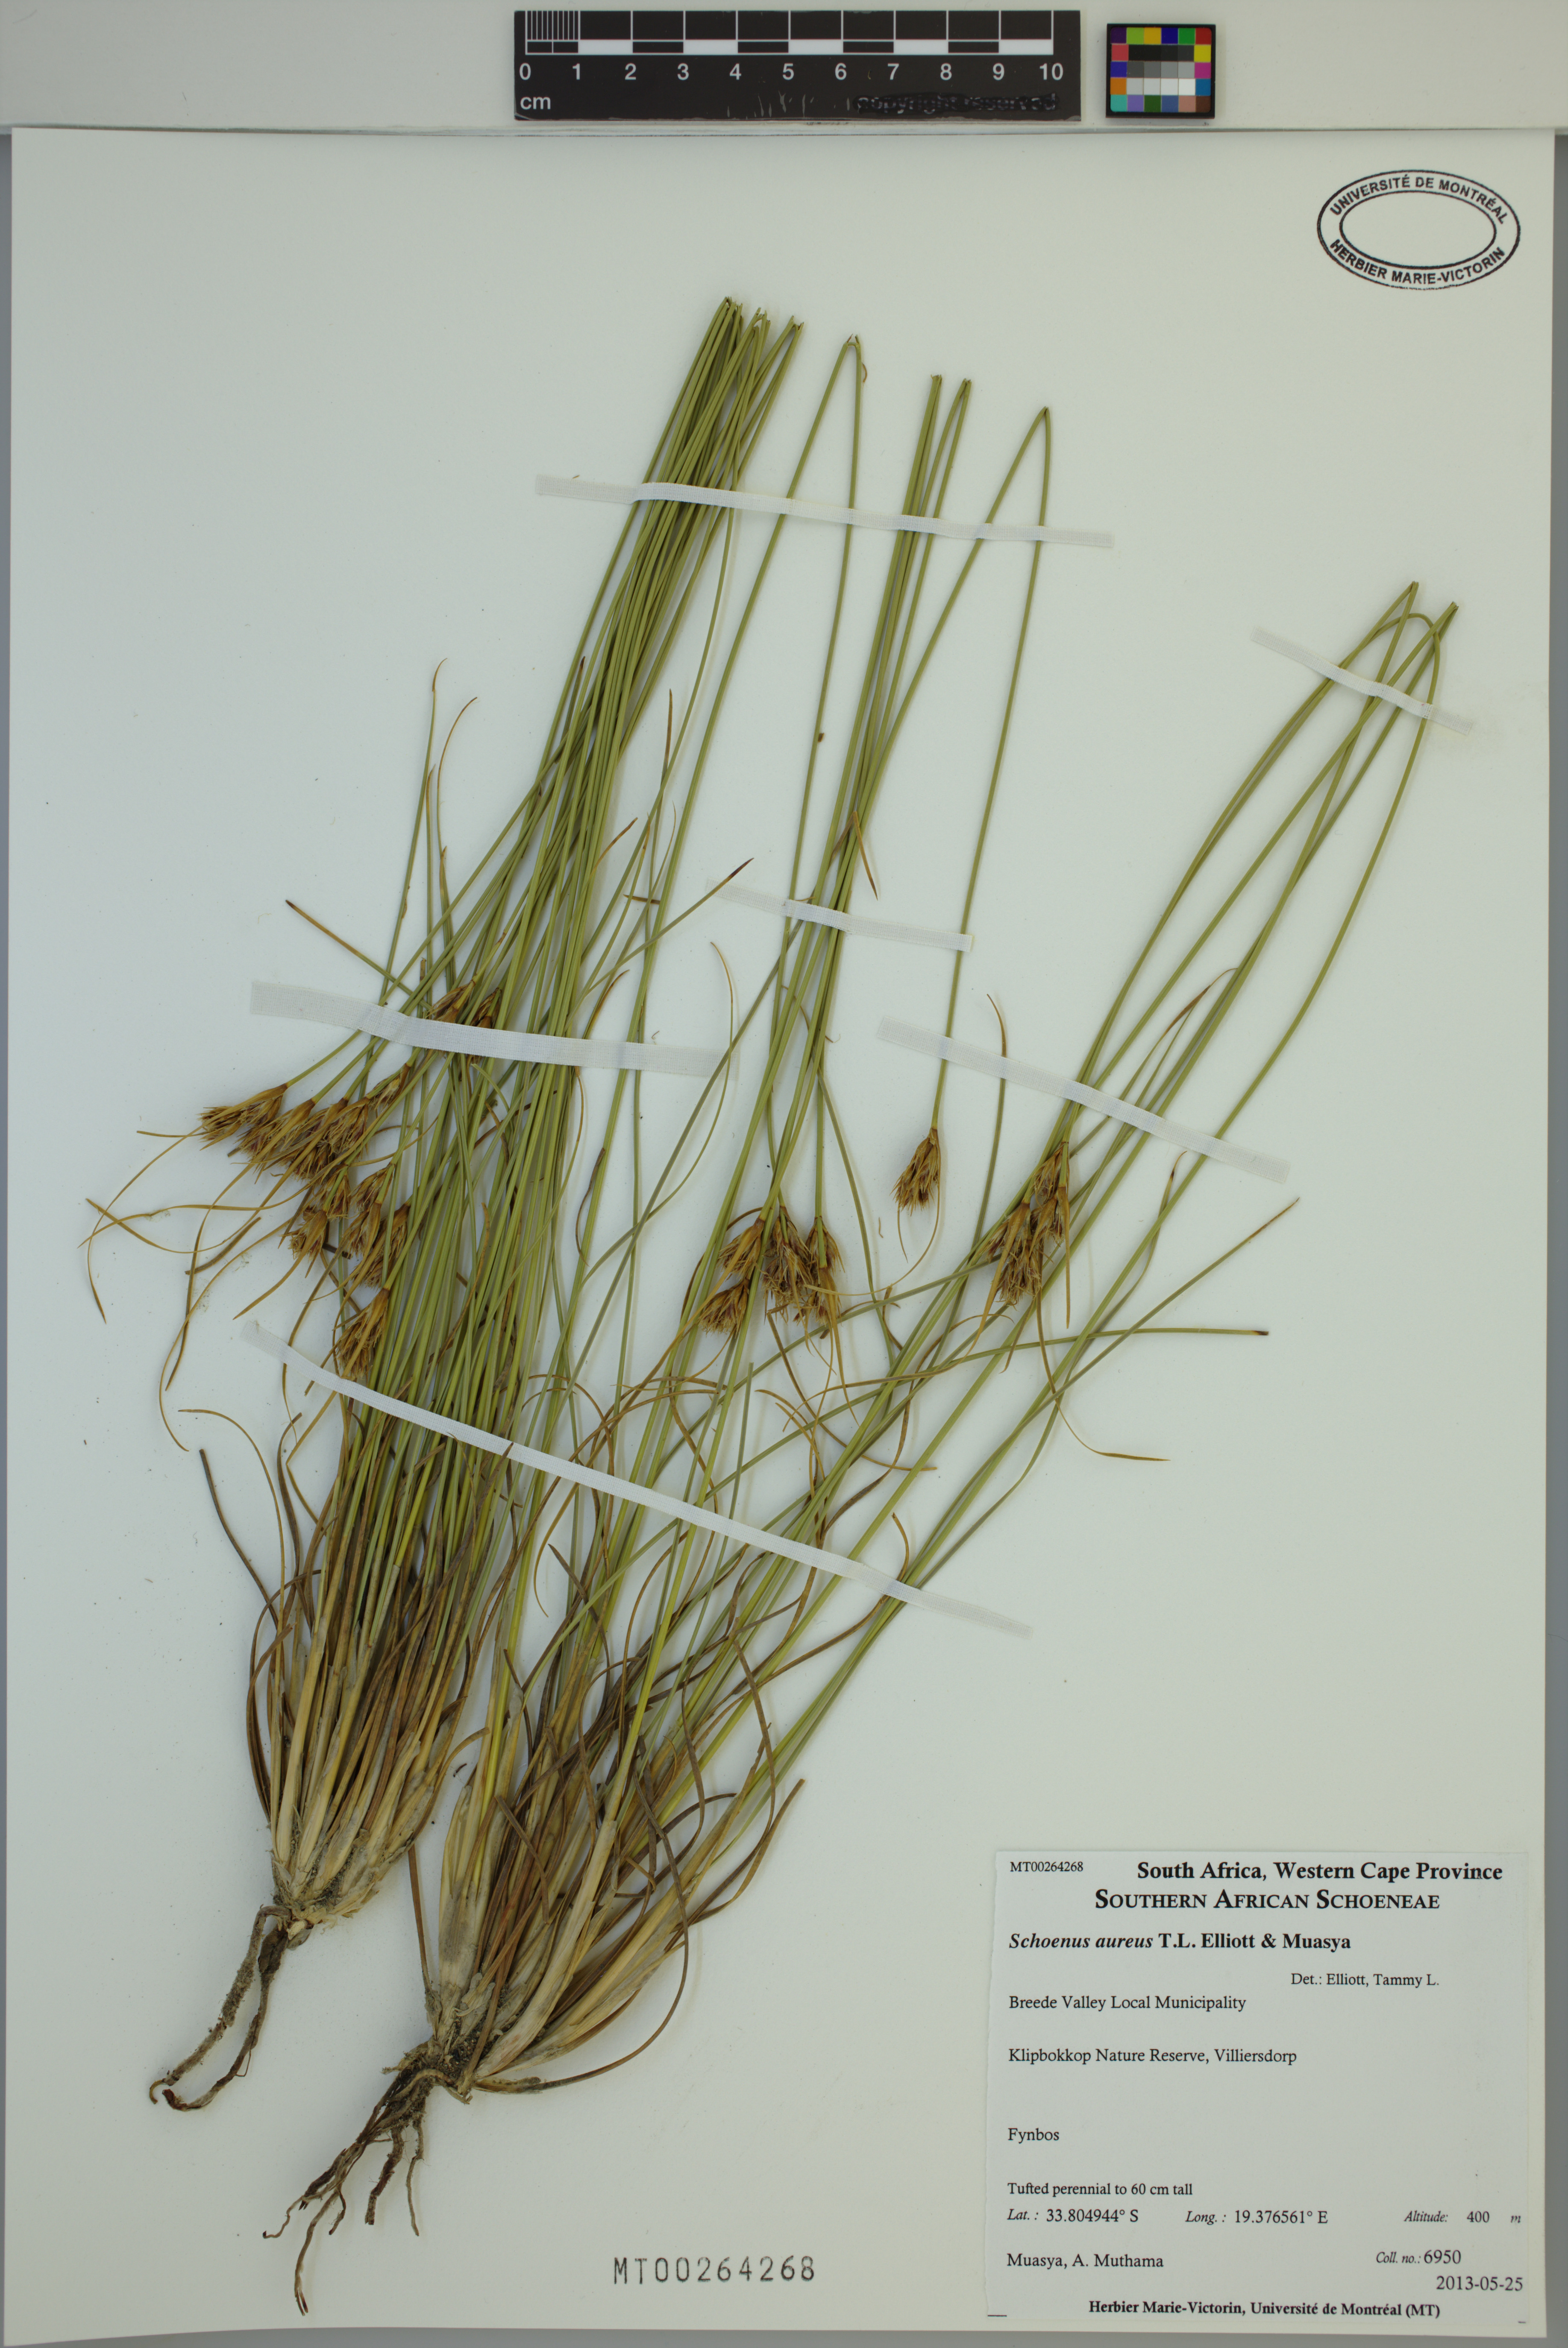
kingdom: Plantae
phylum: Tracheophyta
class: Liliopsida
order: Poales
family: Cyperaceae
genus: Schoenus
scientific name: Schoenus aureus
